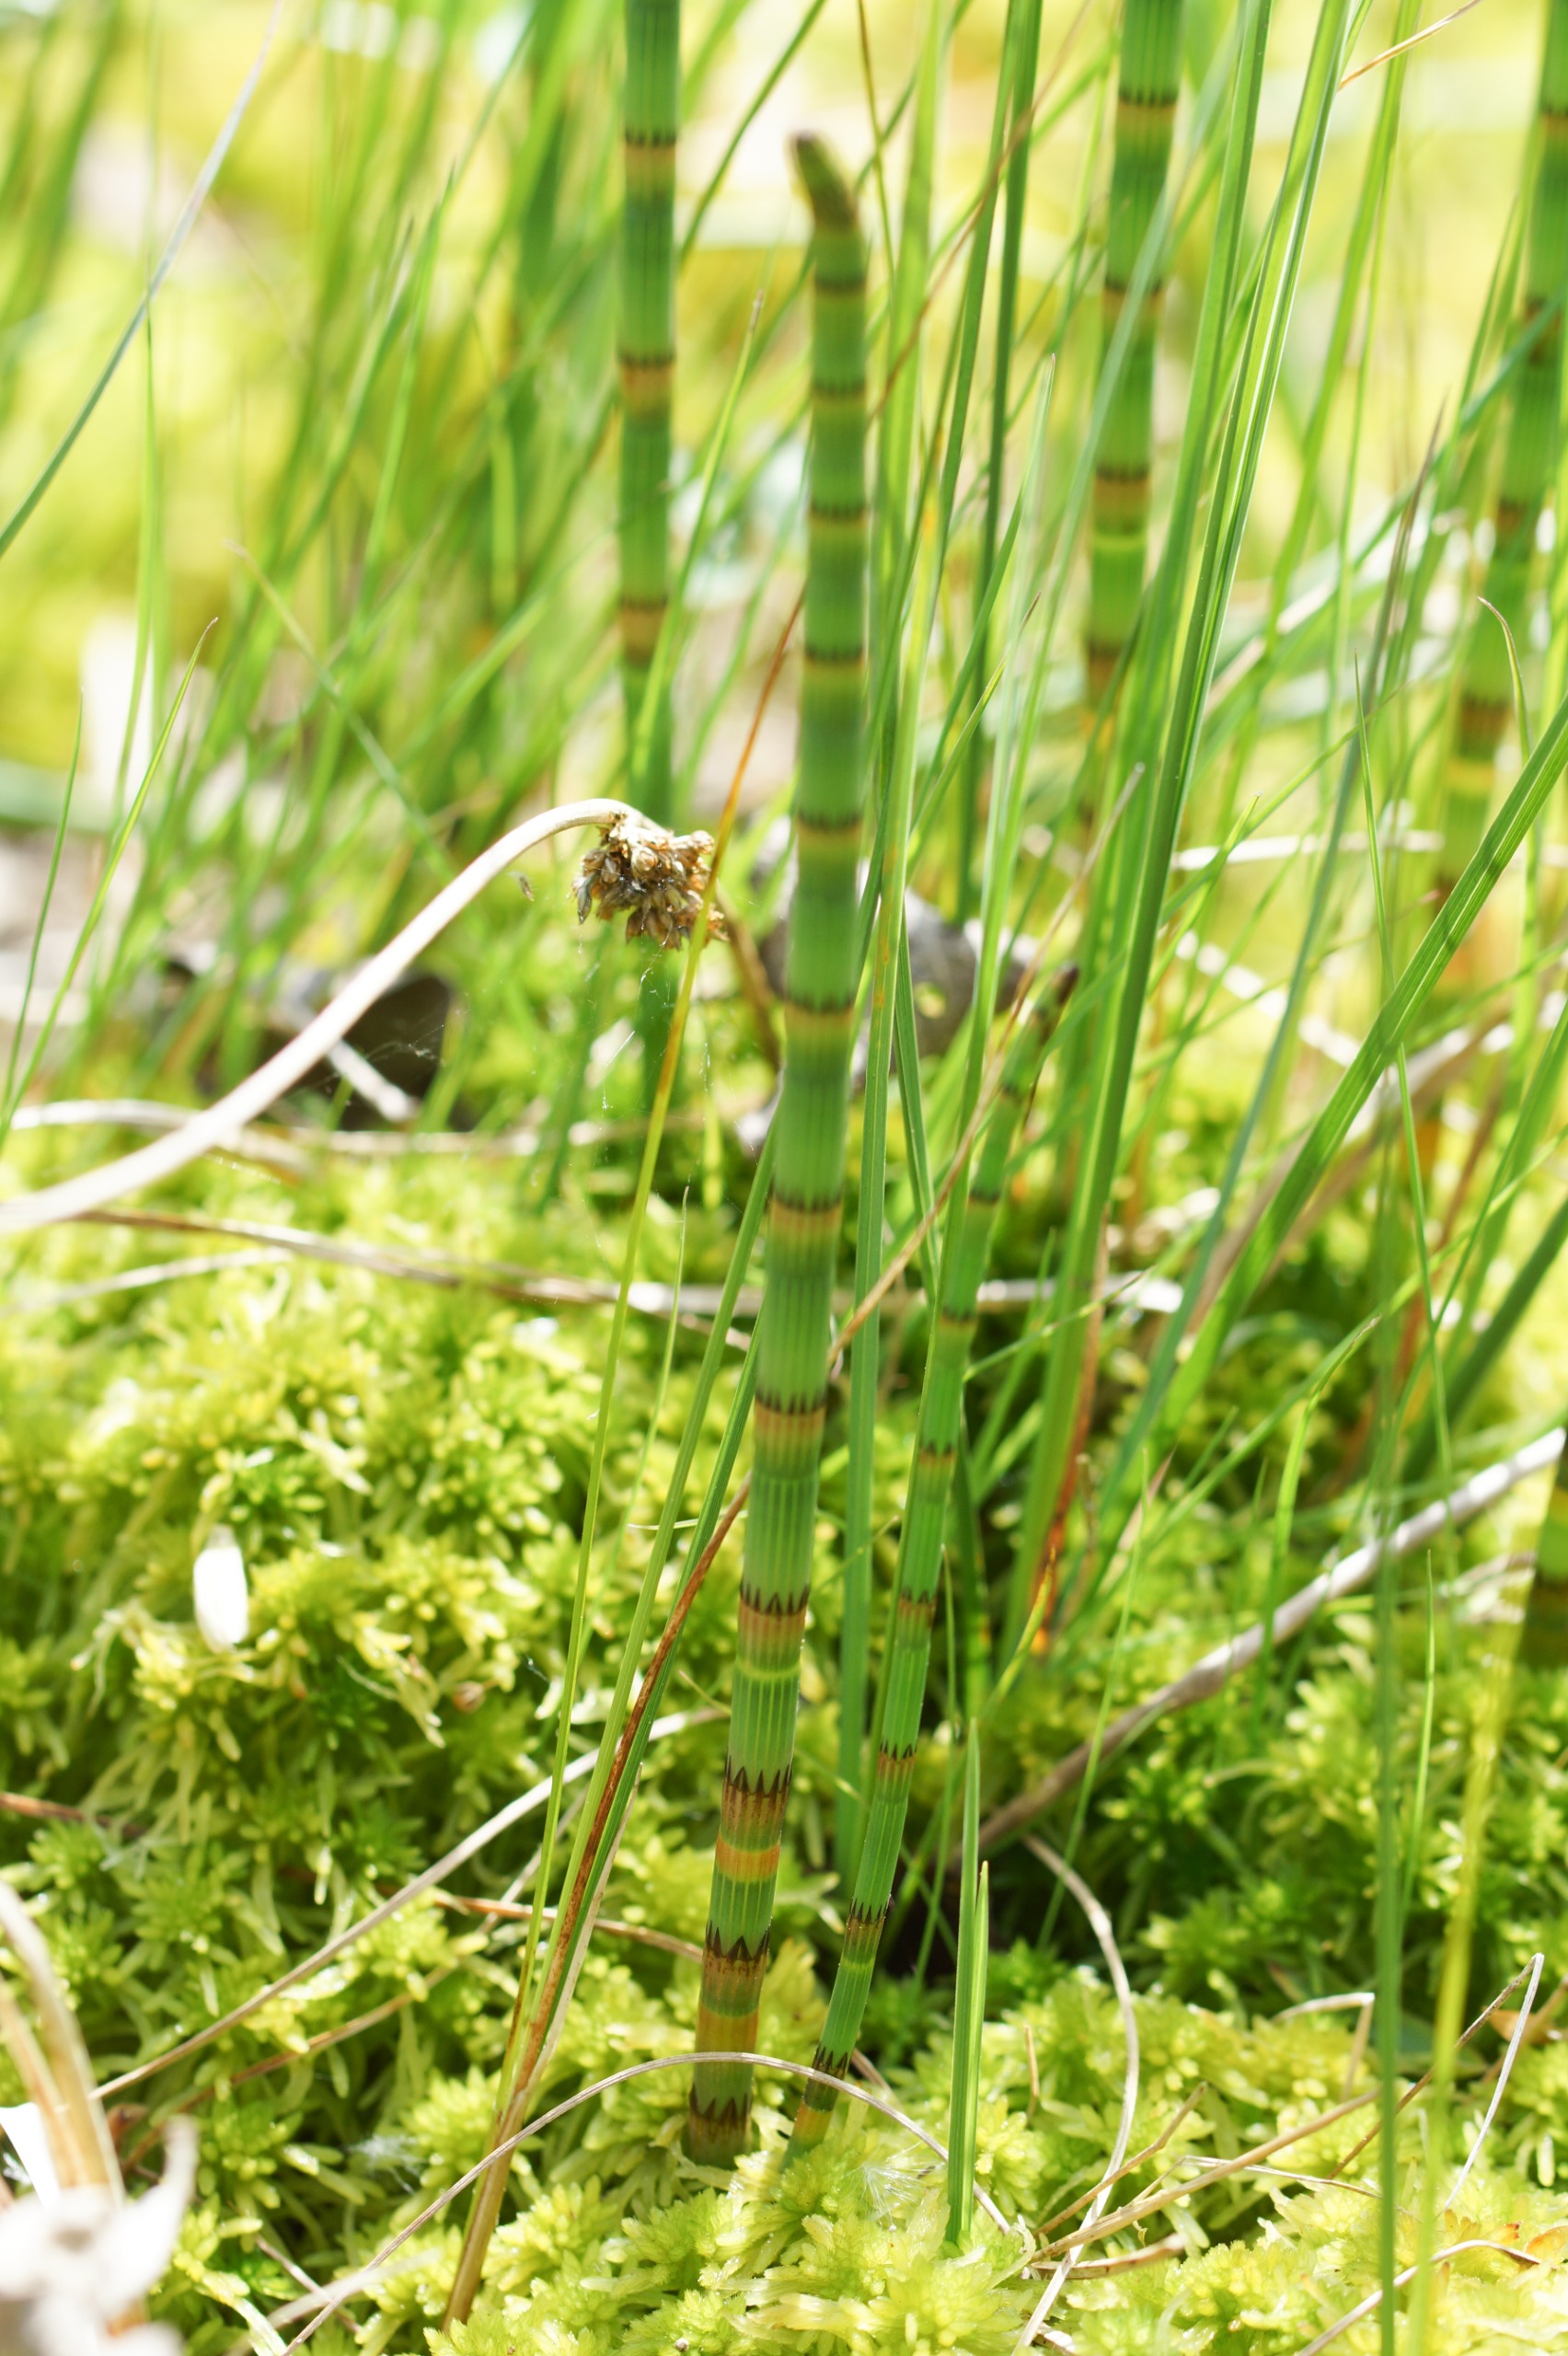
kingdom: Plantae
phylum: Tracheophyta
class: Polypodiopsida
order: Equisetales
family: Equisetaceae
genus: Equisetum
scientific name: Equisetum fluviatile
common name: Dynd-padderok
